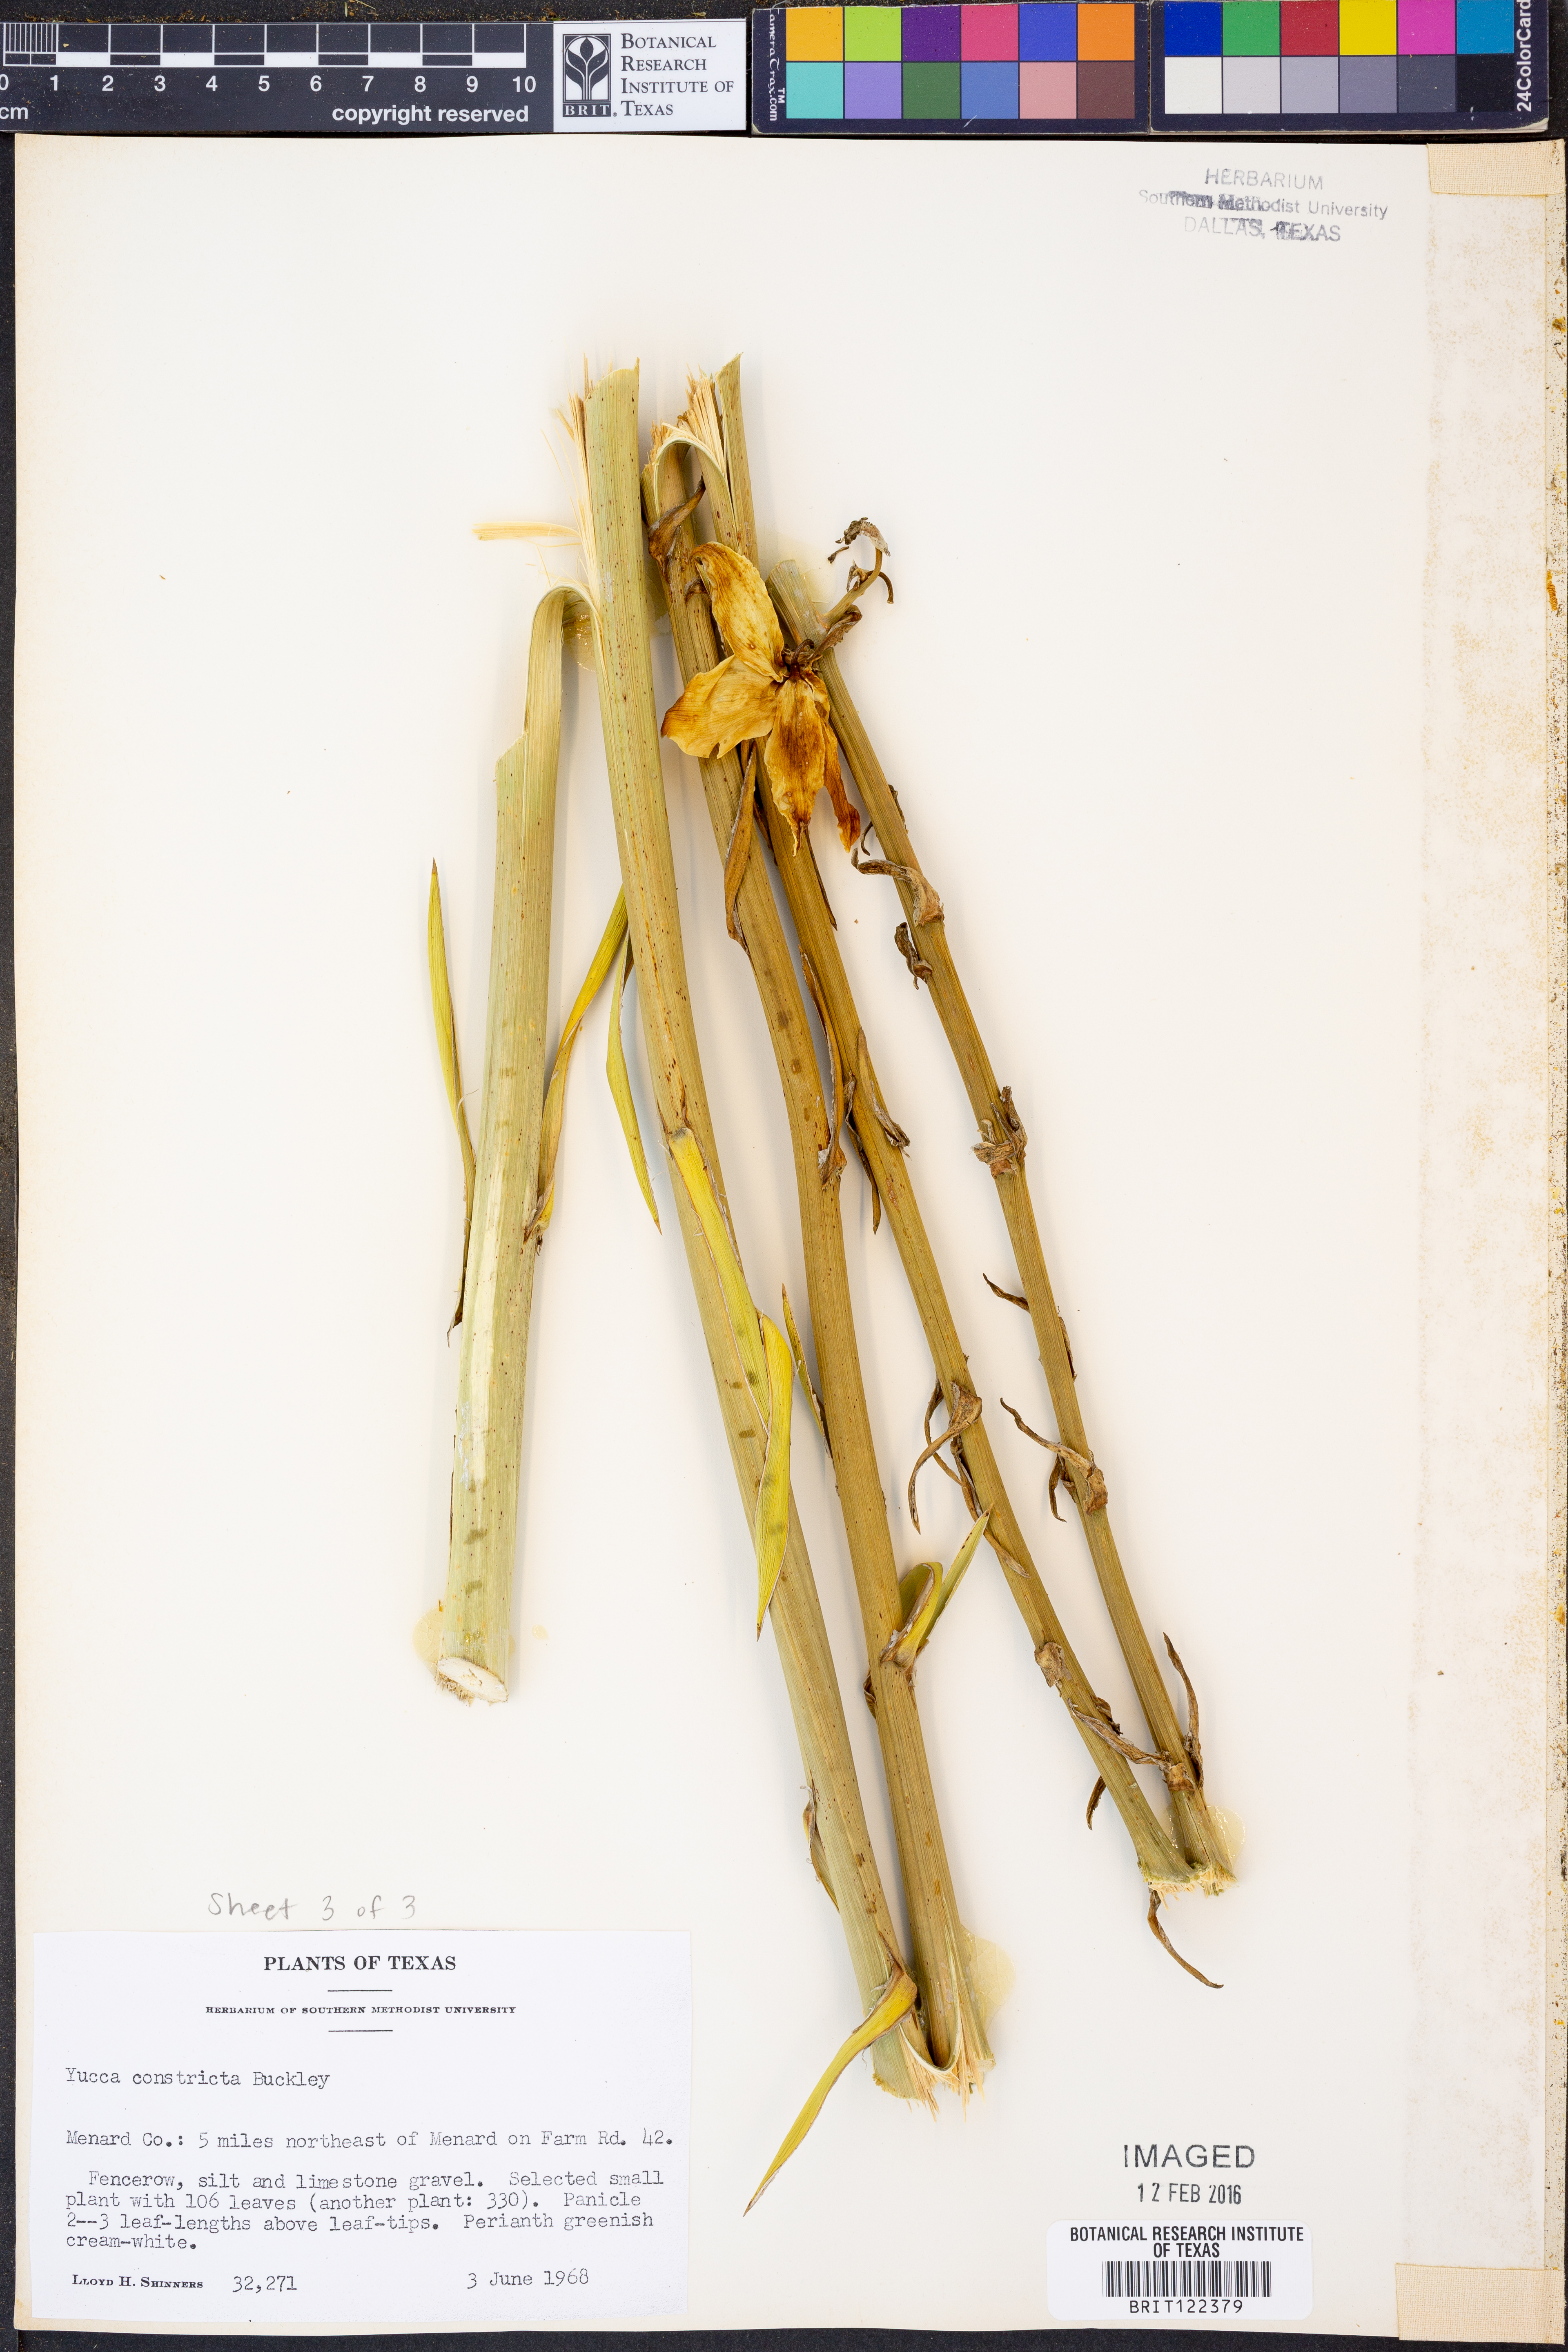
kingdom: Plantae
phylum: Tracheophyta
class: Liliopsida
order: Asparagales
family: Asparagaceae
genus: Yucca
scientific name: Yucca constricta
